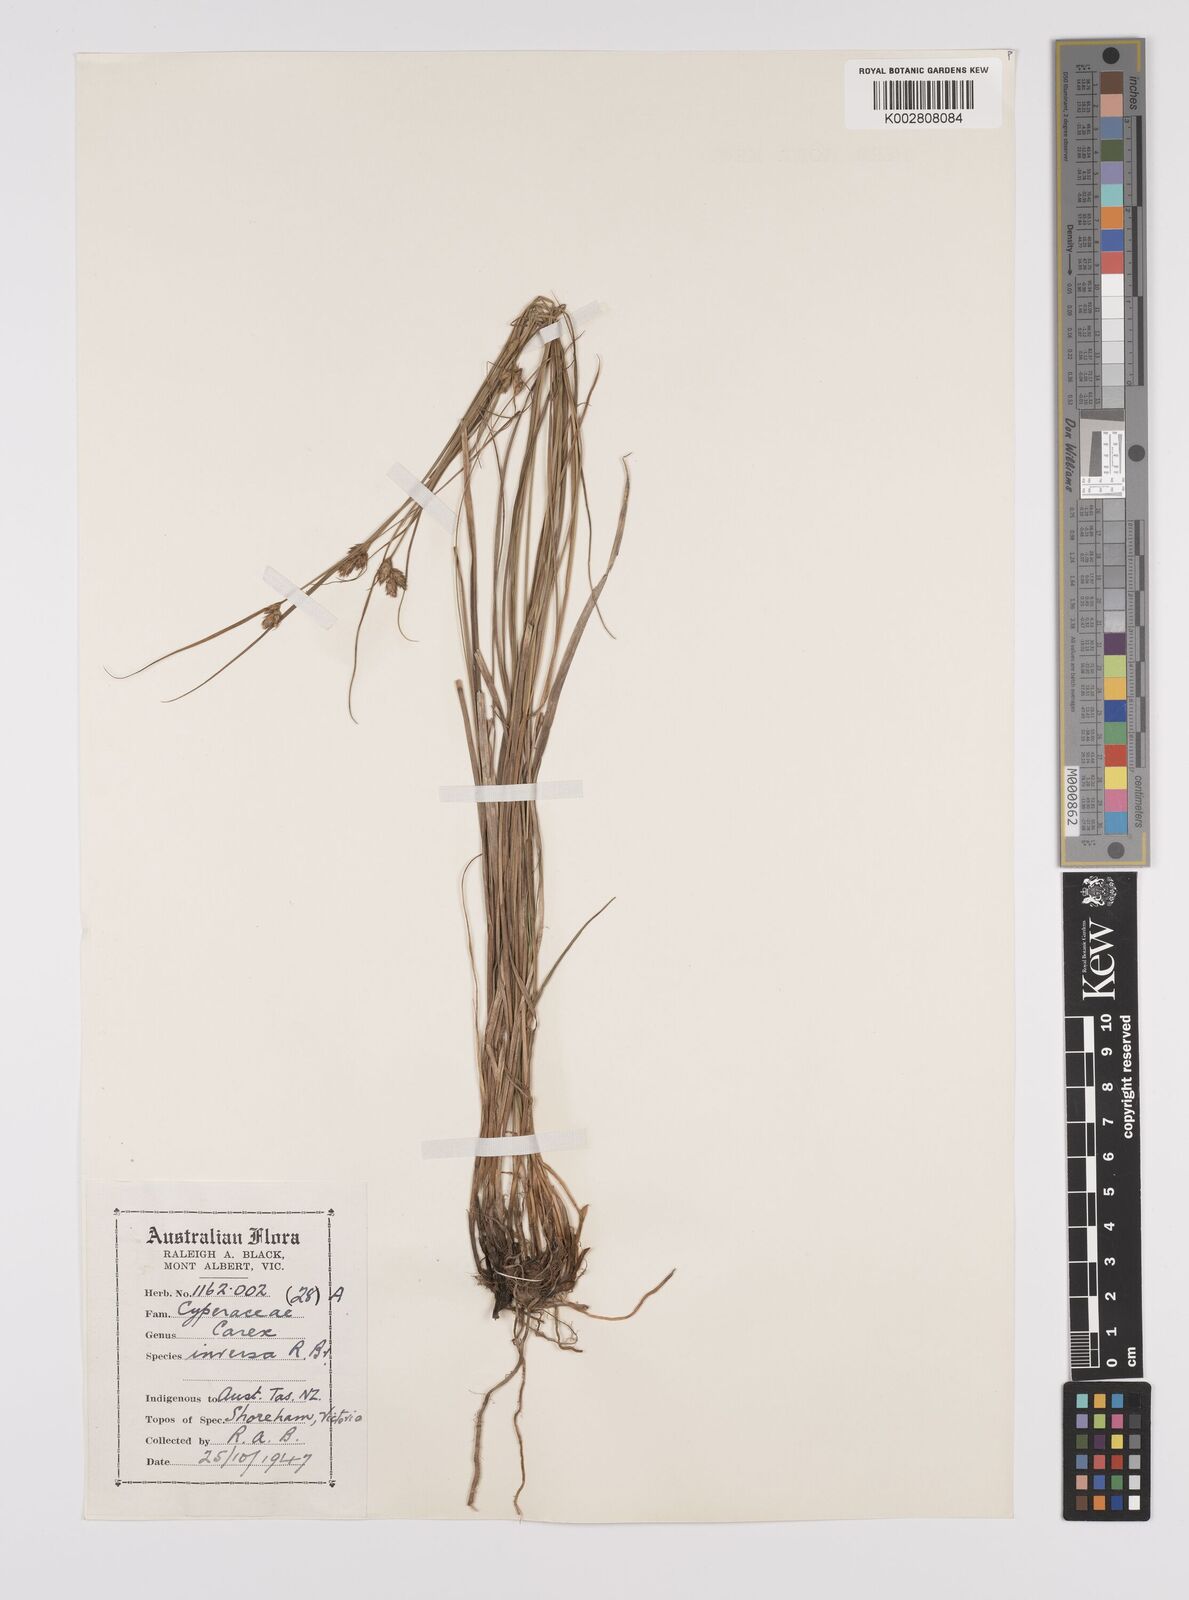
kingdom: Plantae
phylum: Tracheophyta
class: Liliopsida
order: Poales
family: Cyperaceae
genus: Carex
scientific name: Carex inversa
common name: Knob sedge
